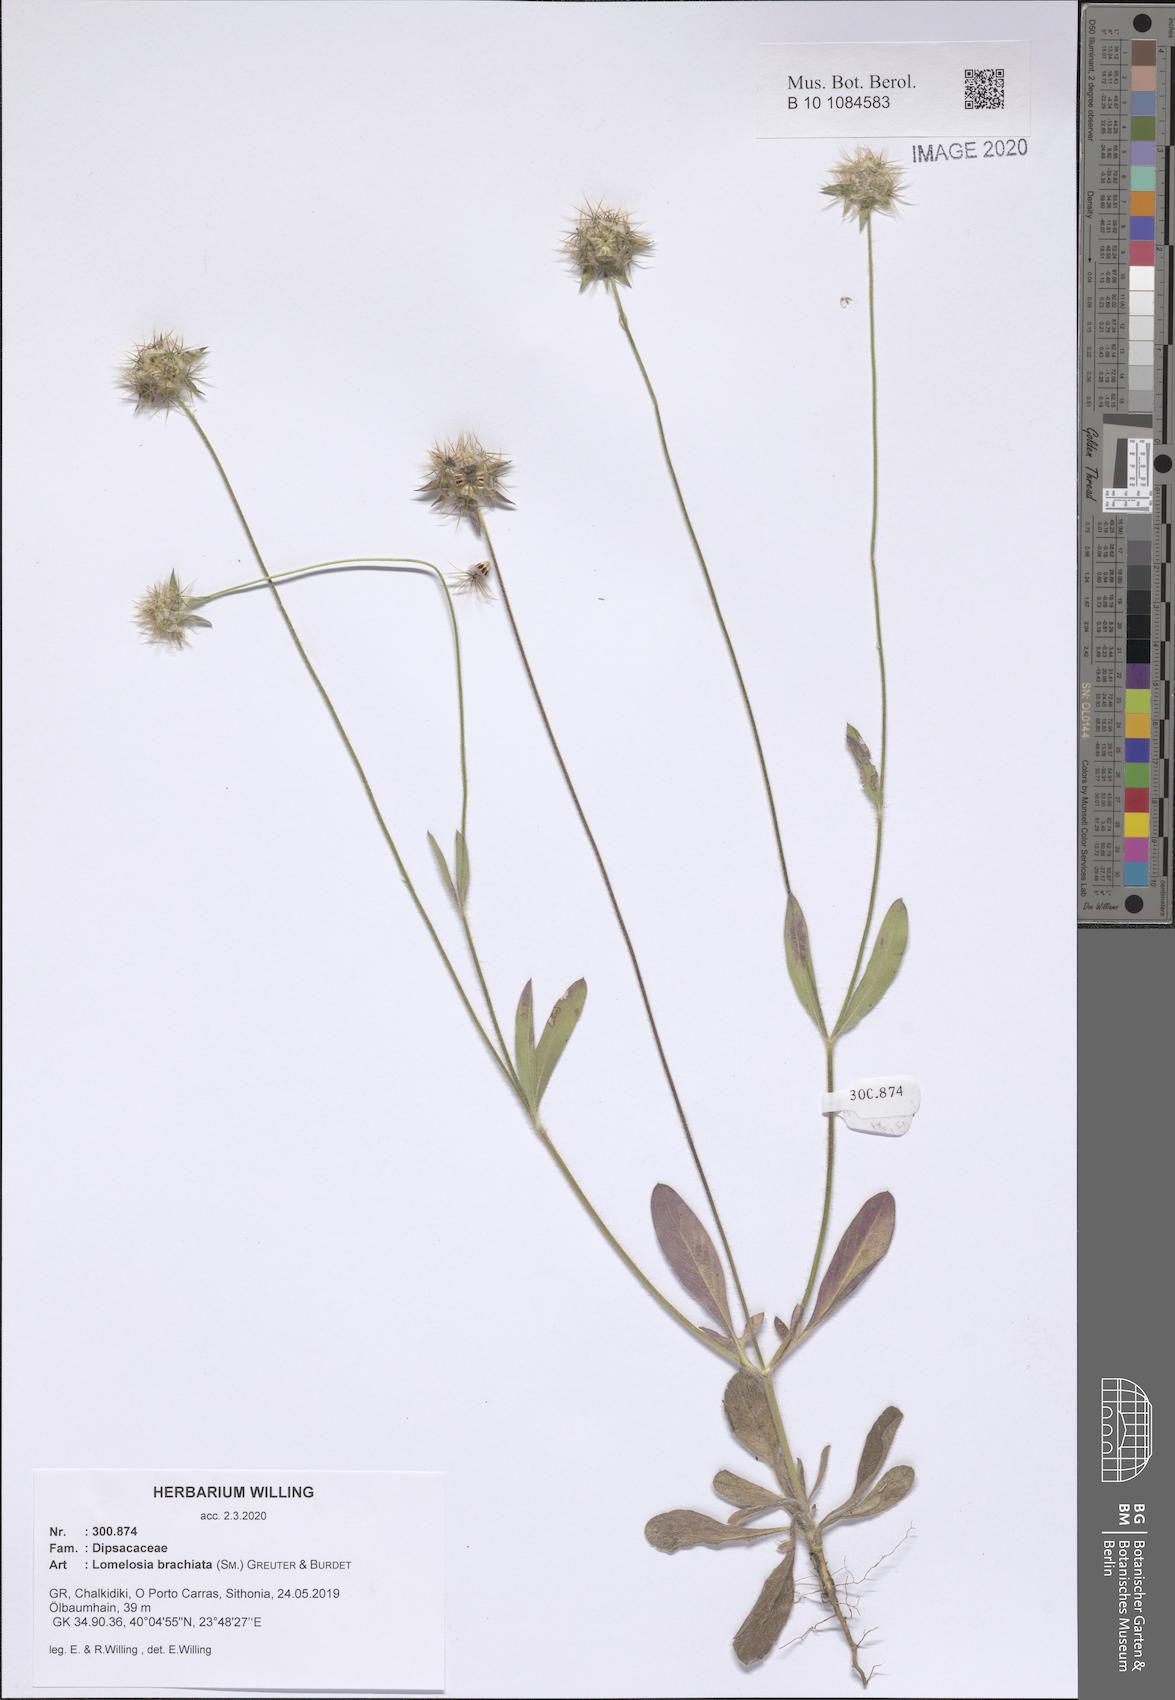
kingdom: Plantae
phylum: Tracheophyta
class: Magnoliopsida
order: Dipsacales
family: Caprifoliaceae
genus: Lomelosia
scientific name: Lomelosia brachiata
